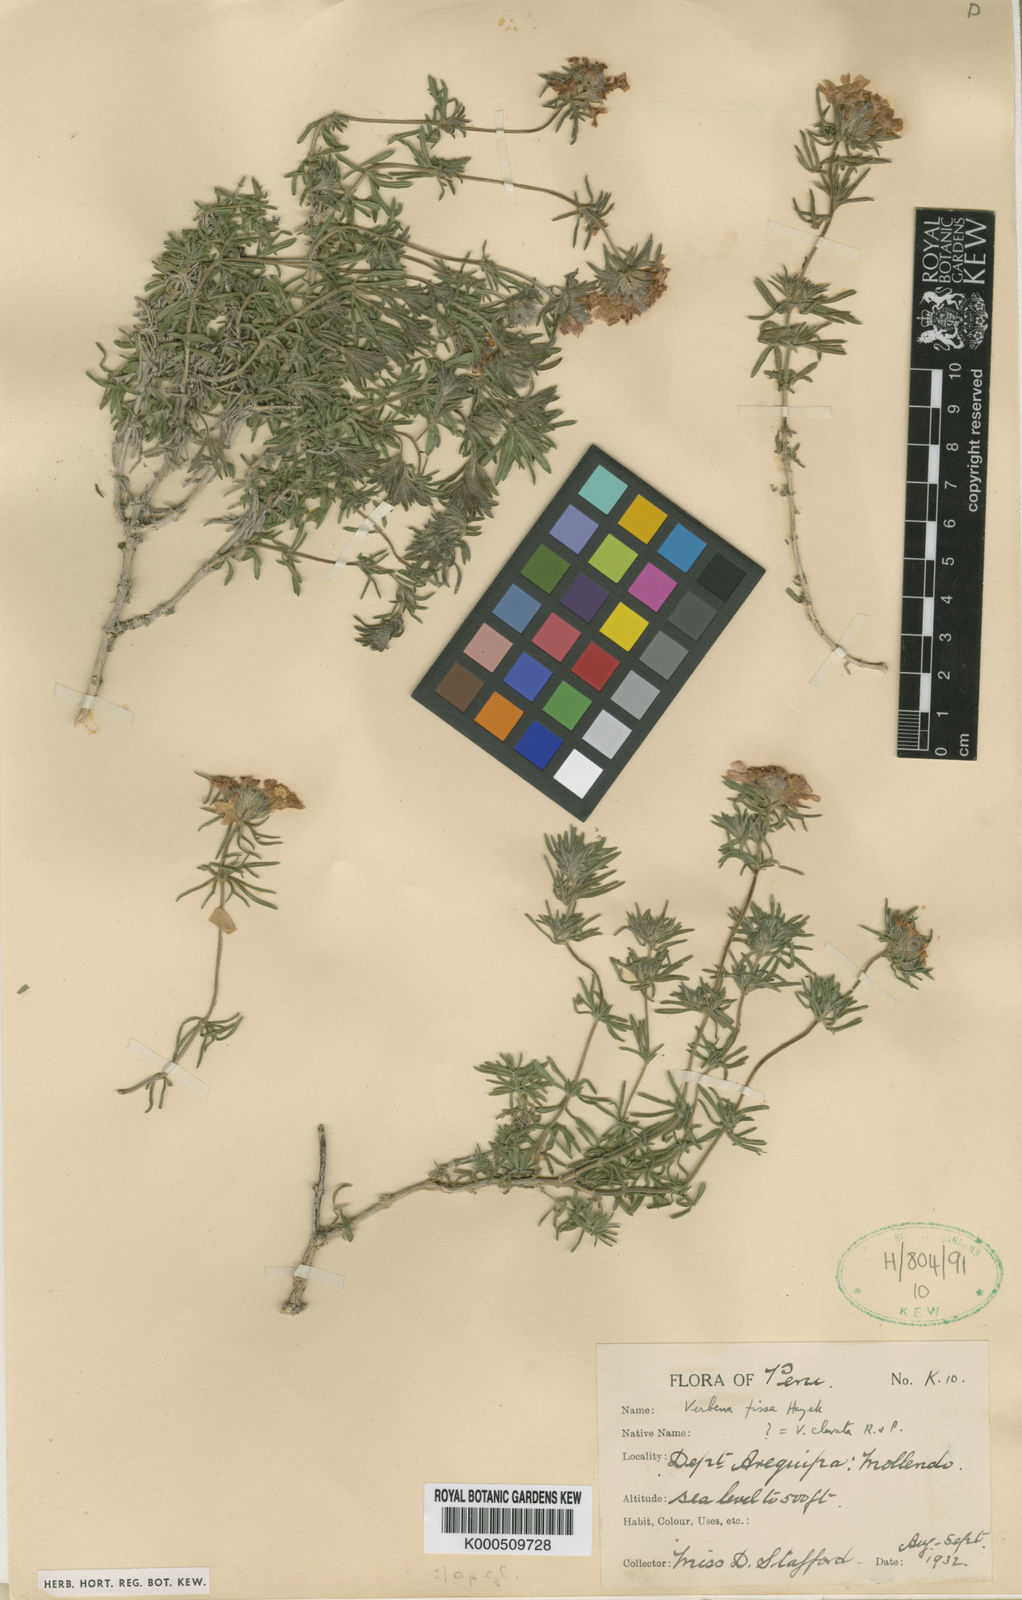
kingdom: Plantae
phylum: Tracheophyta
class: Magnoliopsida
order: Lamiales
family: Verbenaceae
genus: Junellia
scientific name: Junellia clavata
